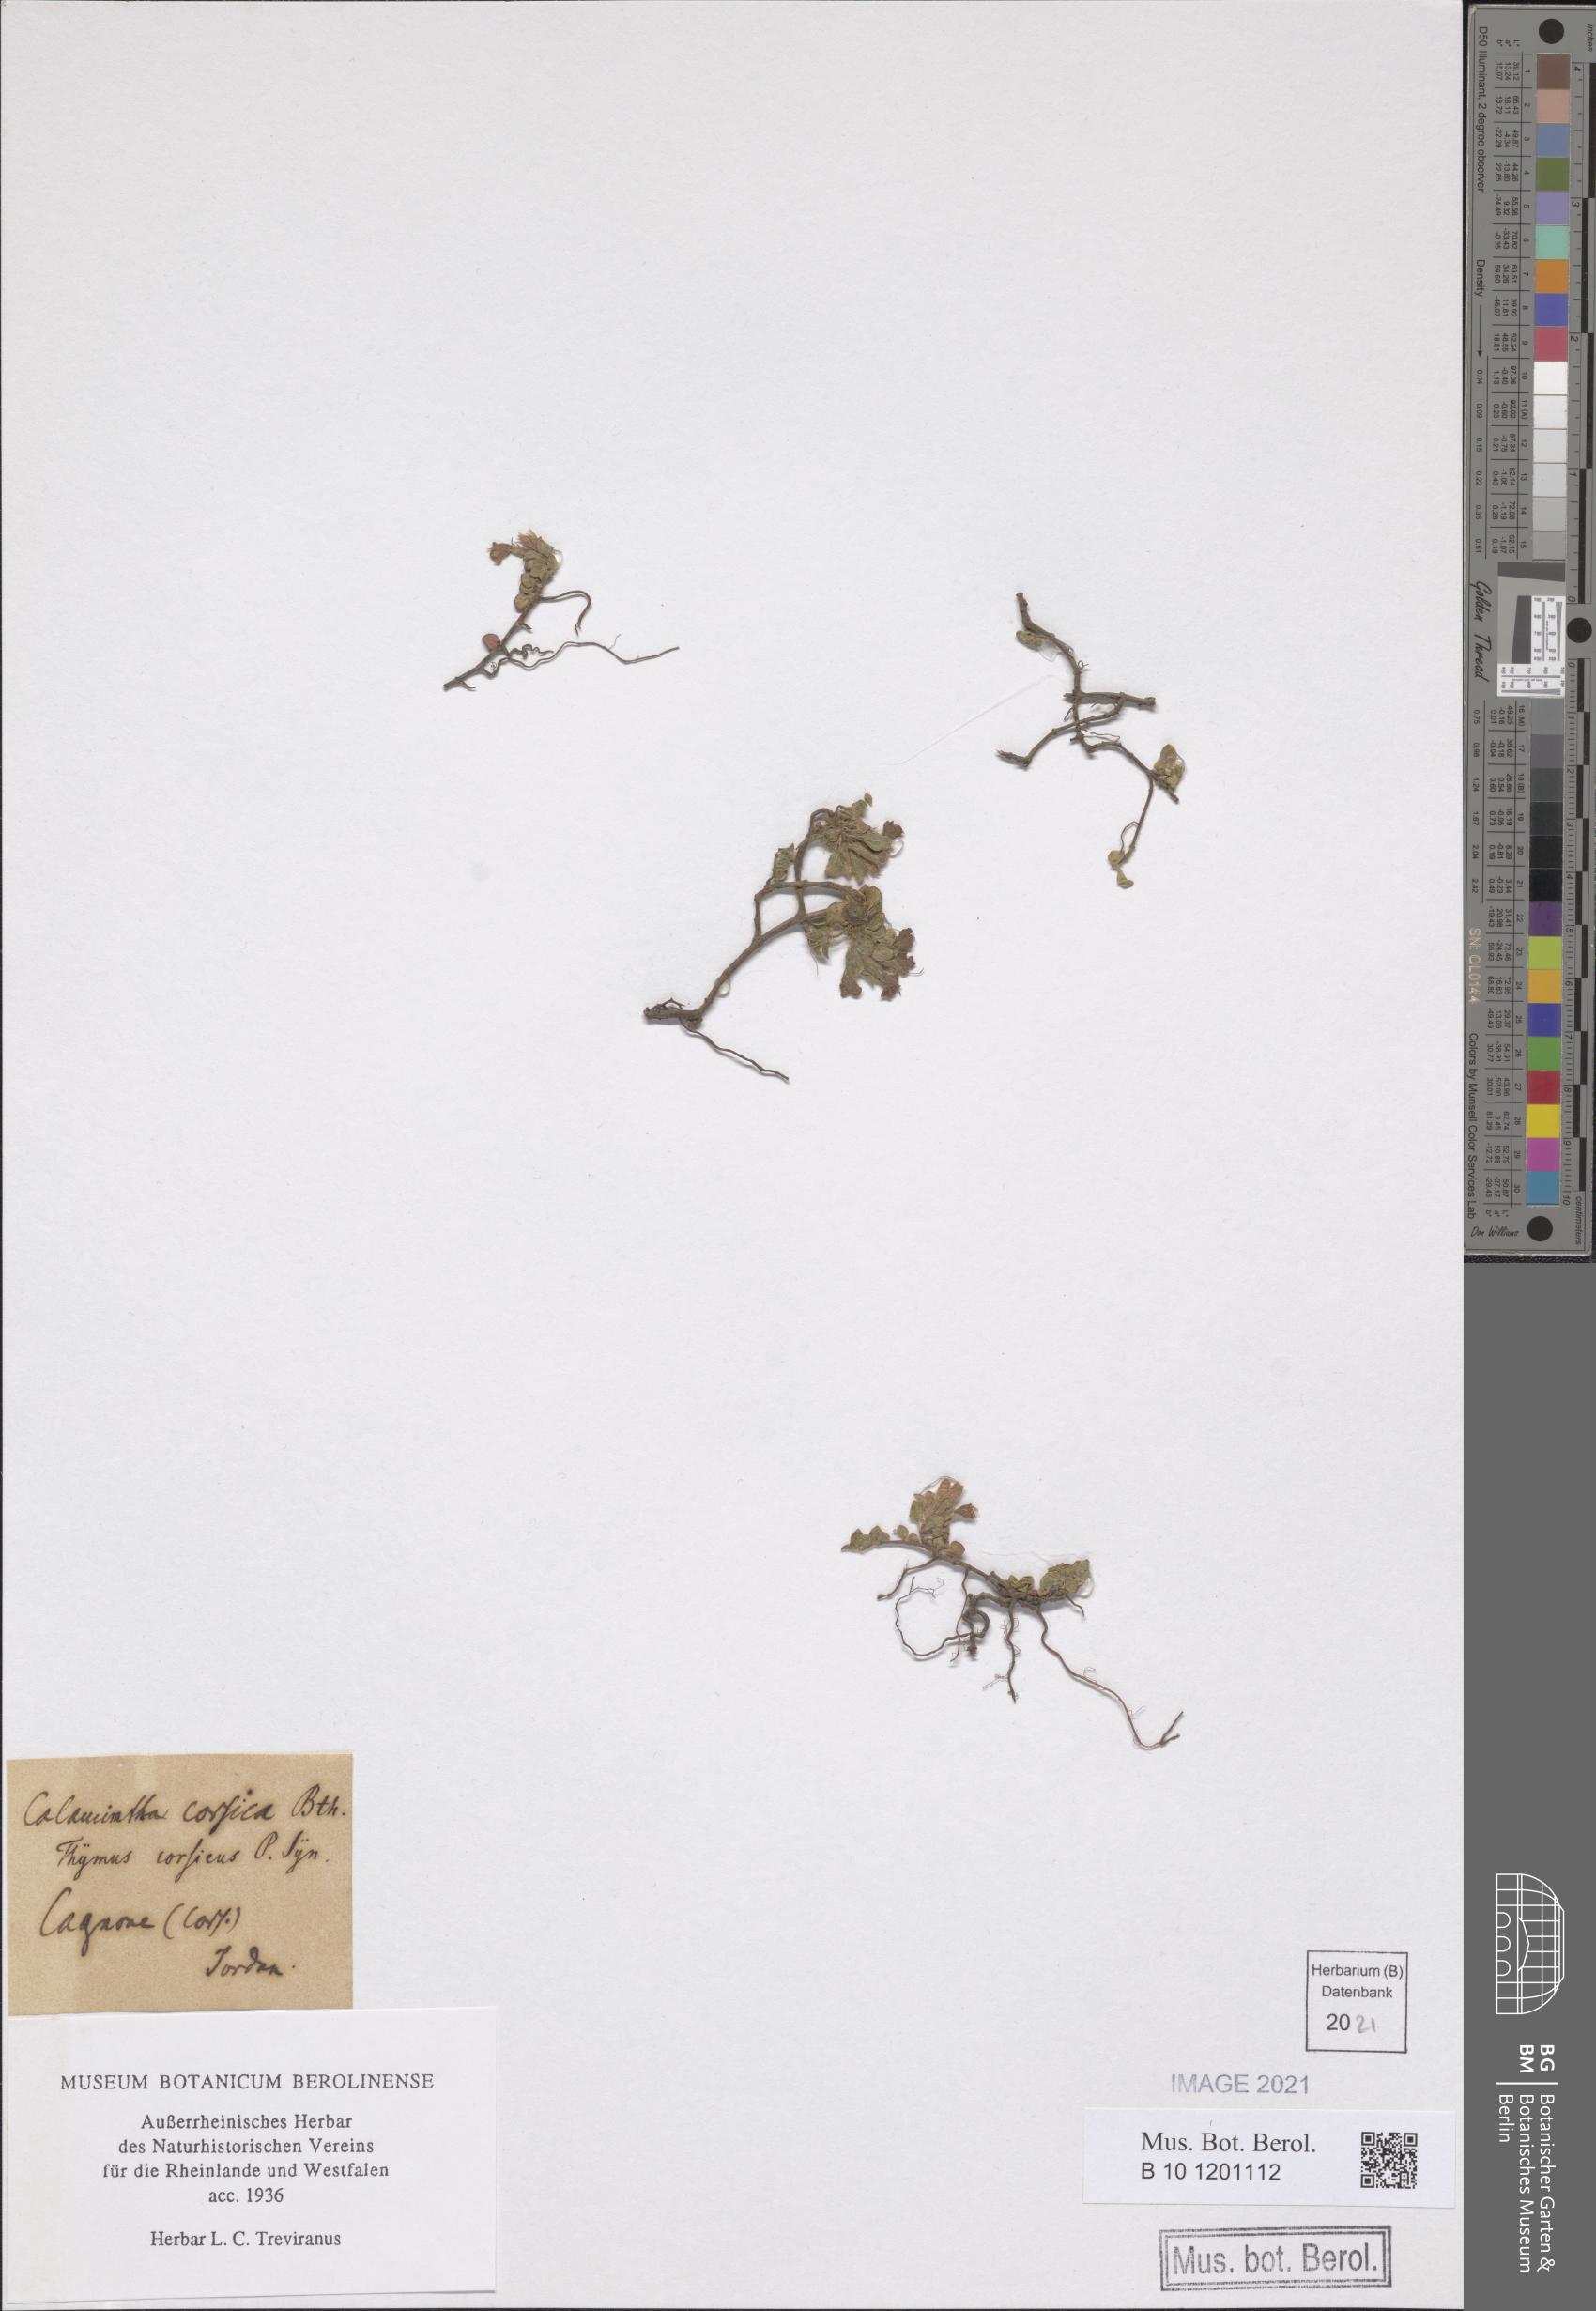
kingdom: Plantae
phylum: Tracheophyta
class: Magnoliopsida
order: Lamiales
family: Lamiaceae
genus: Clinopodium
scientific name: Clinopodium corsicum
